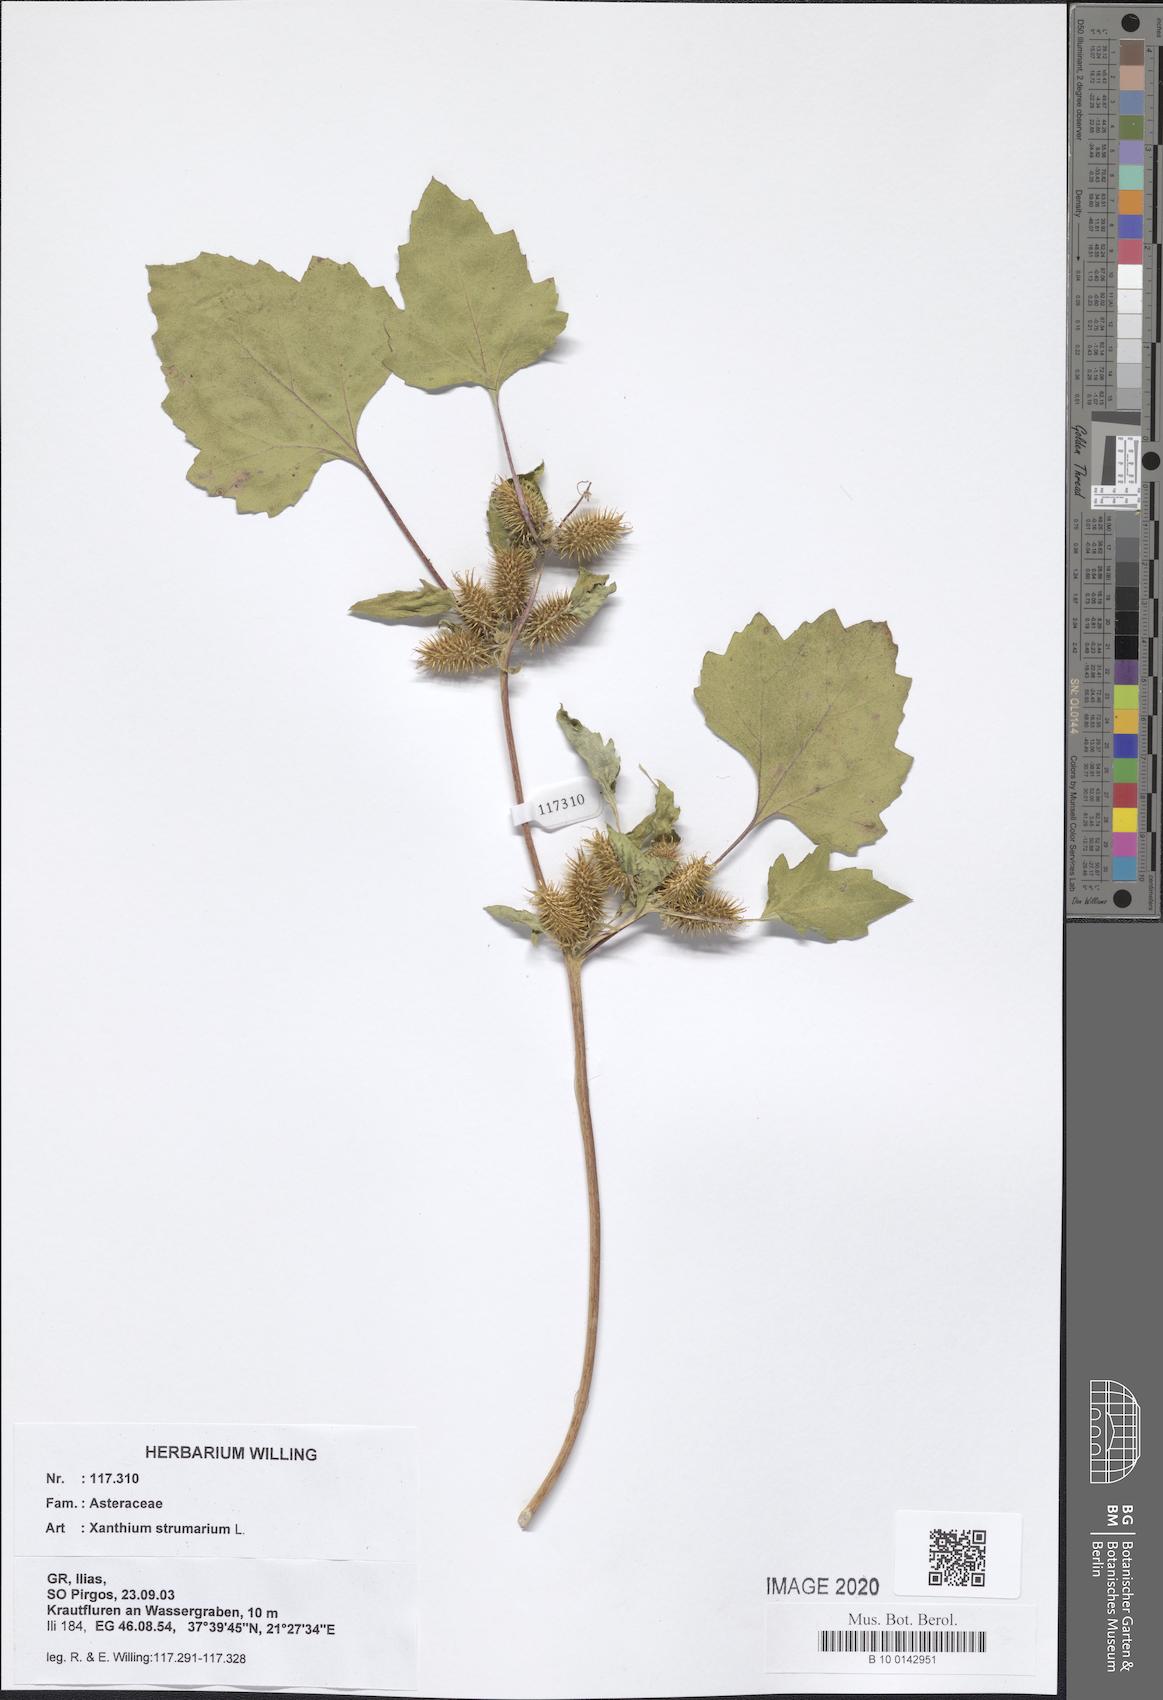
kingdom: Plantae
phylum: Tracheophyta
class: Magnoliopsida
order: Asterales
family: Asteraceae
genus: Xanthium
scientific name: Xanthium strumarium
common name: Rough cocklebur
